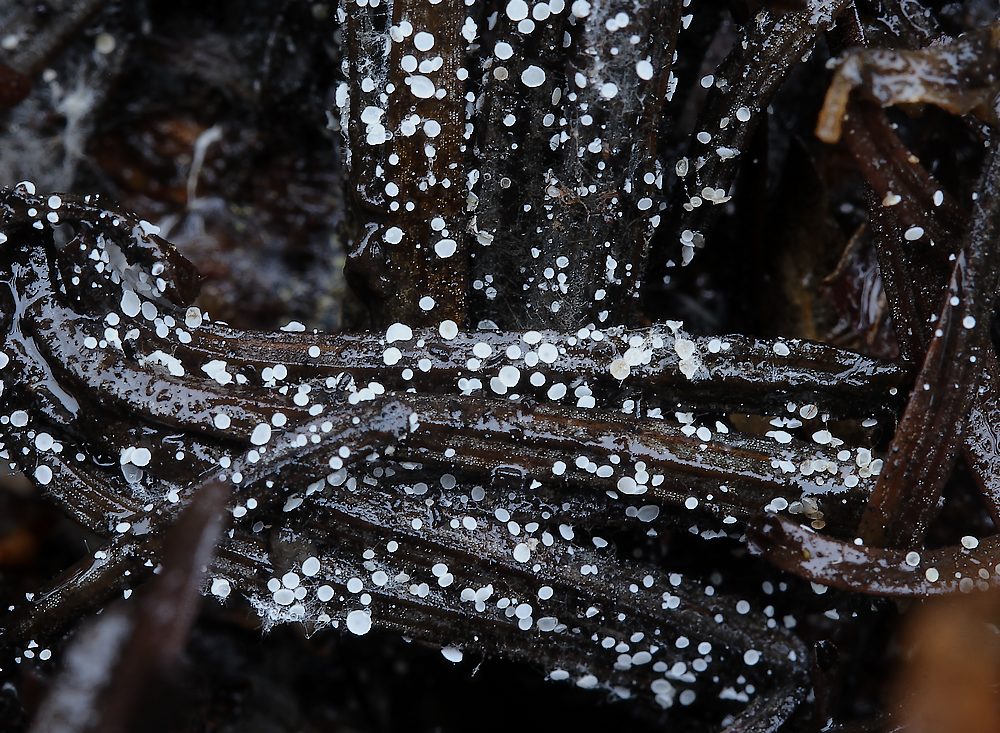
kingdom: Fungi
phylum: Ascomycota
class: Leotiomycetes
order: Helotiales
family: Hyaloscyphaceae
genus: Cistella
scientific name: Cistella acuum
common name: nåle-sirskive
